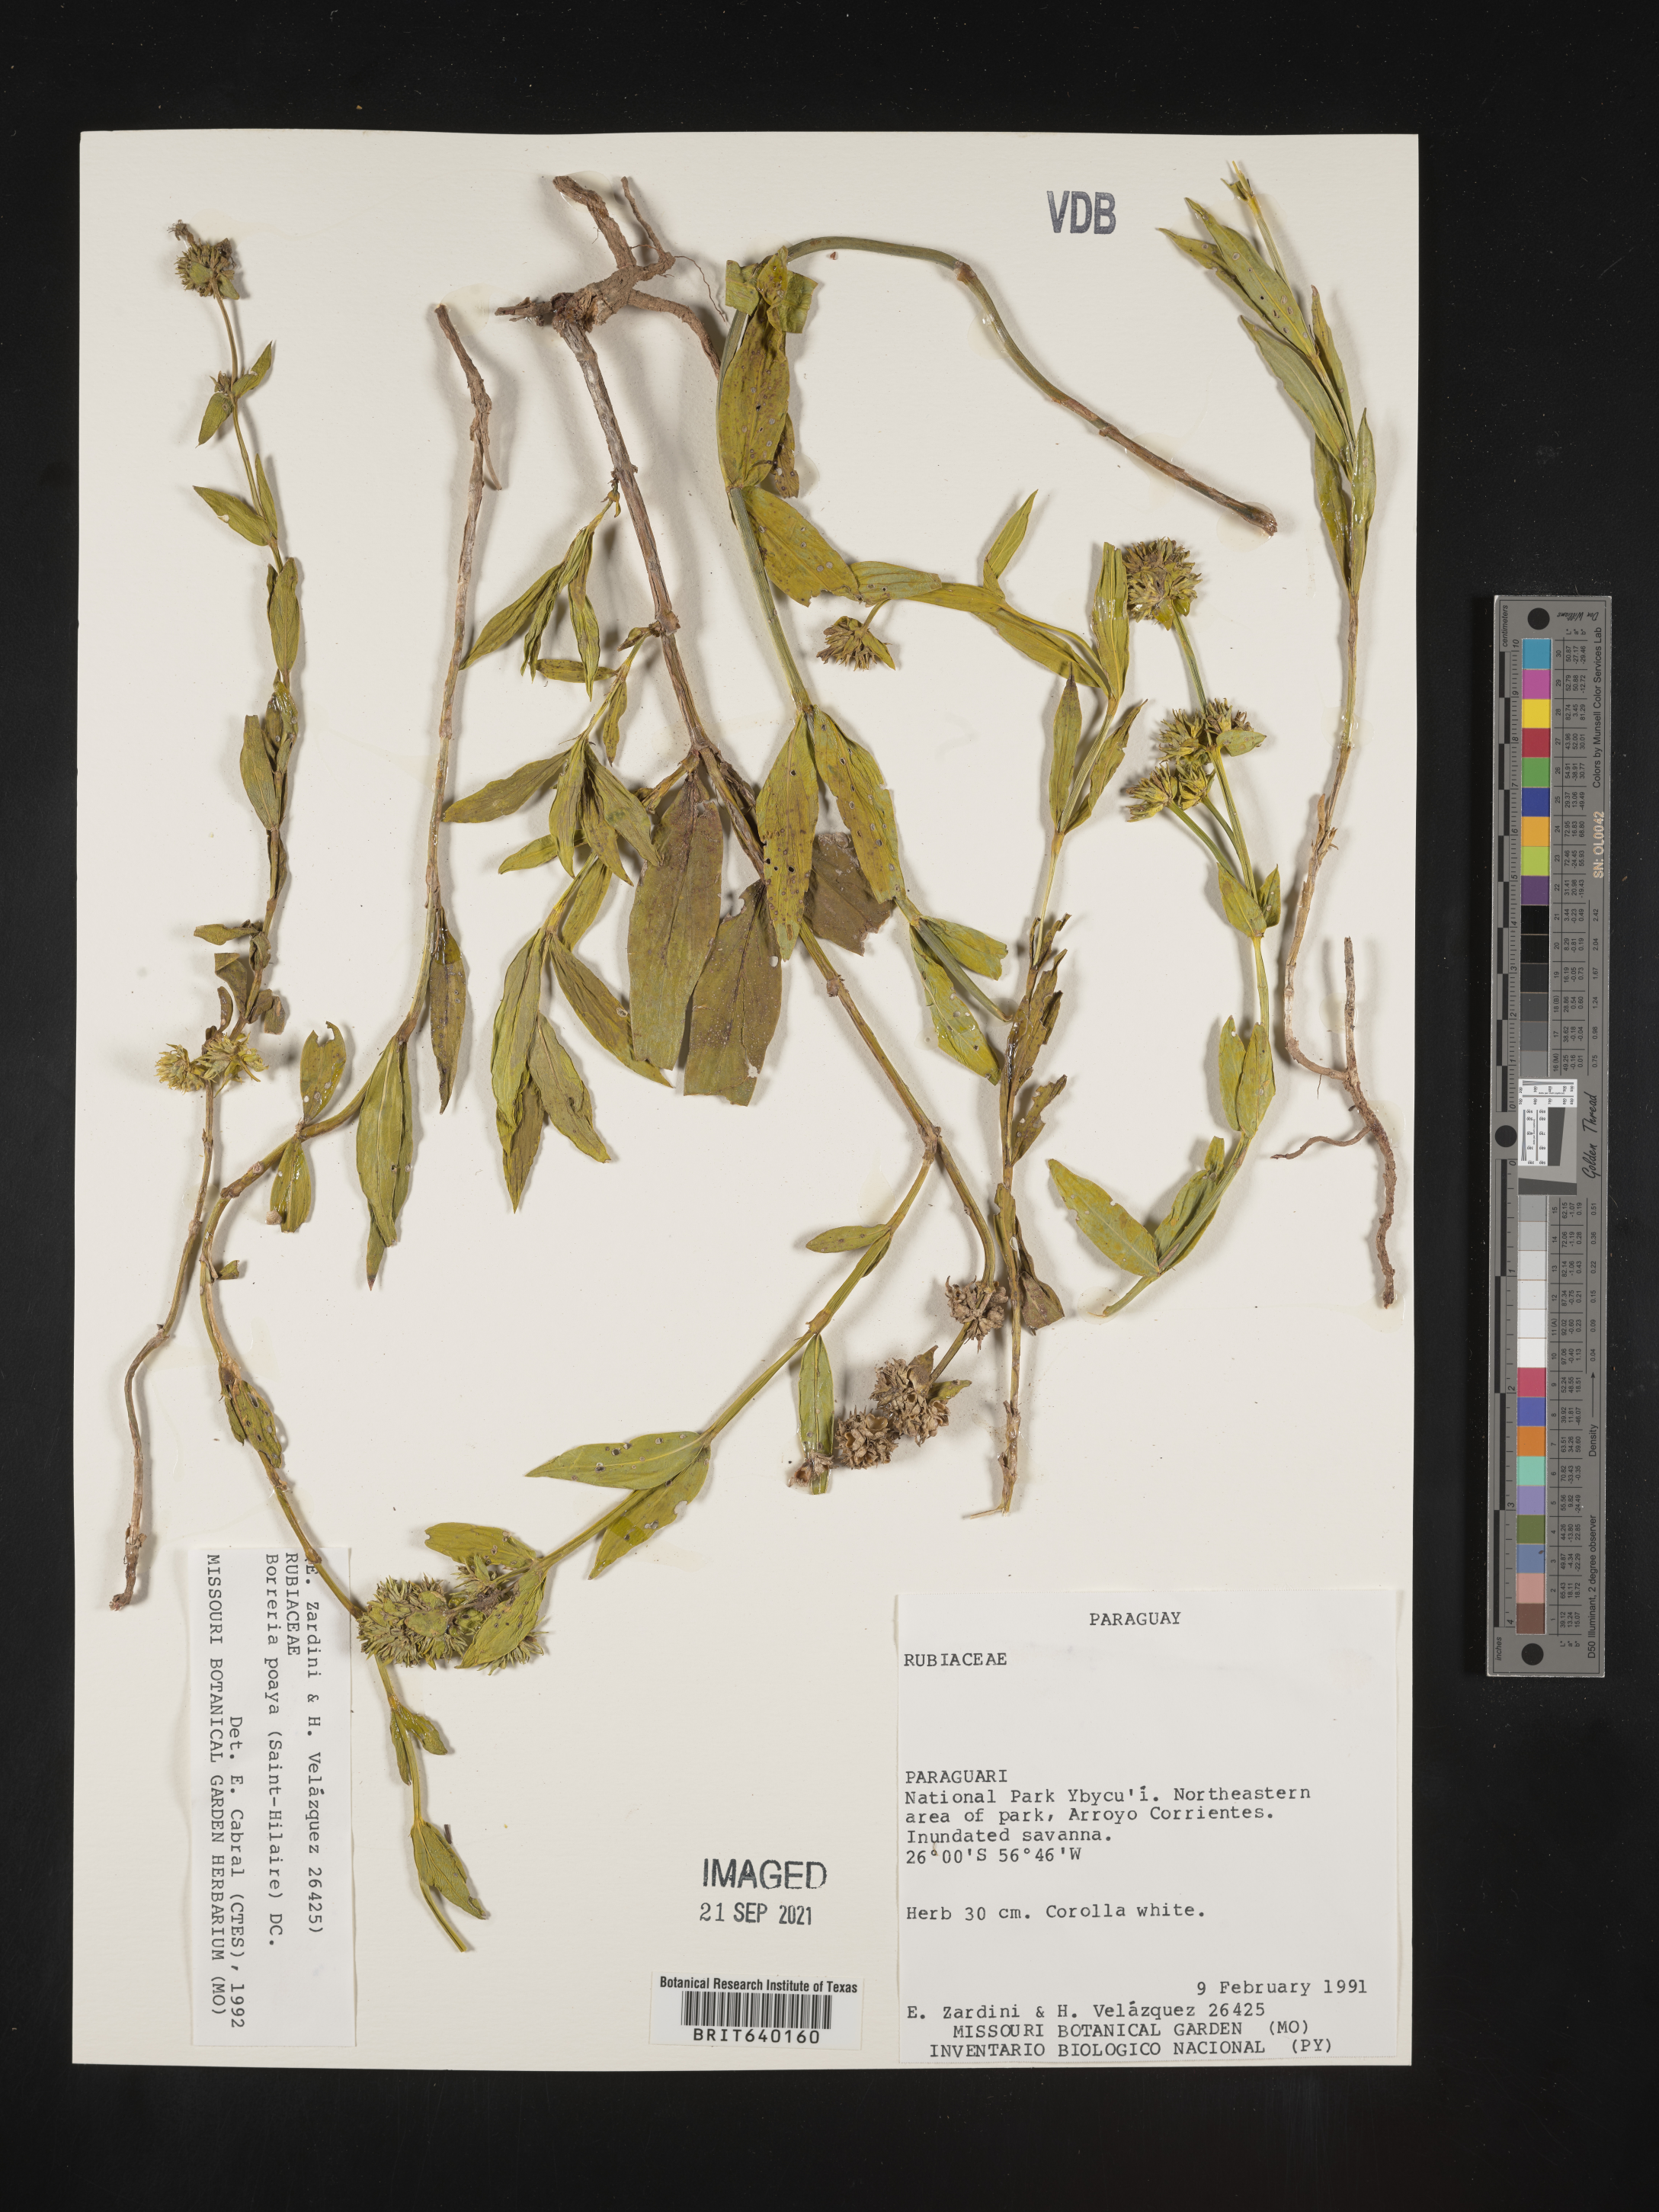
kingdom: Plantae
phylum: Tracheophyta
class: Magnoliopsida
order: Gentianales
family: Rubiaceae
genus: Spermacoce
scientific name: Spermacoce
